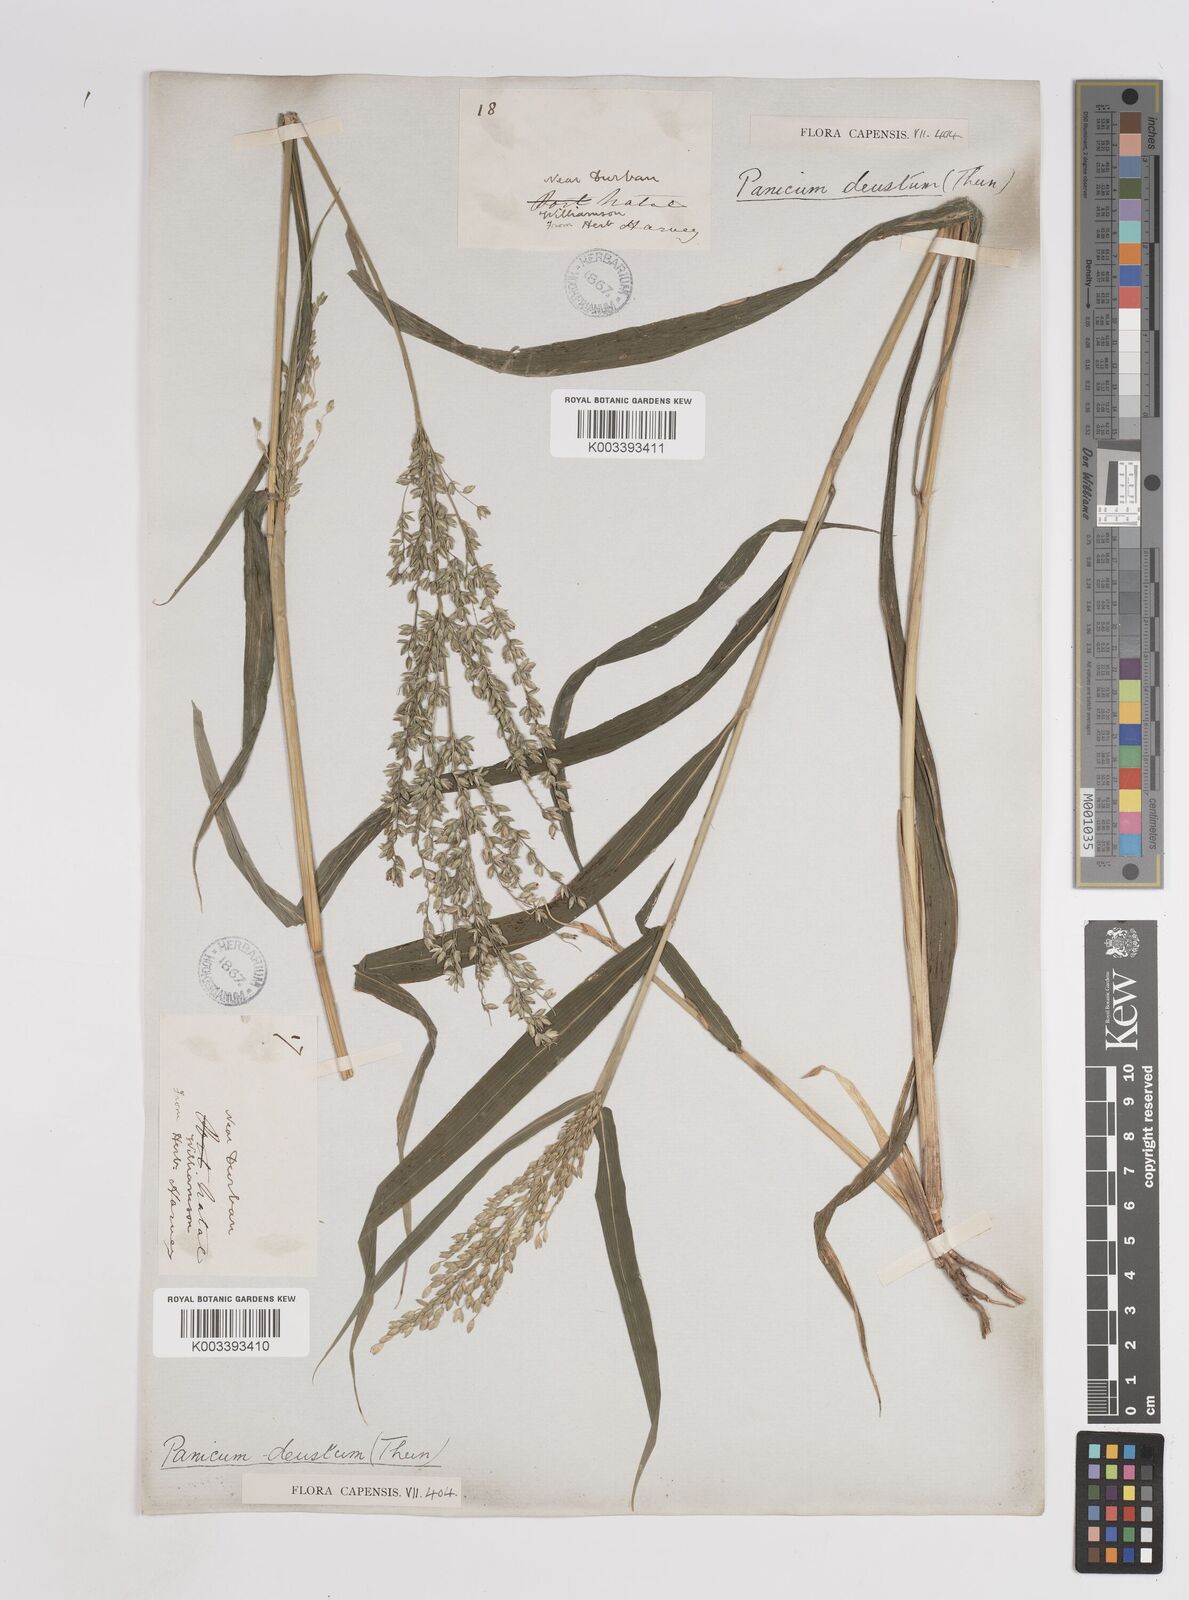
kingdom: Plantae
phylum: Tracheophyta
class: Liliopsida
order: Poales
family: Poaceae
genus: Panicum
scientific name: Panicum deustum
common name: Reed panicum
